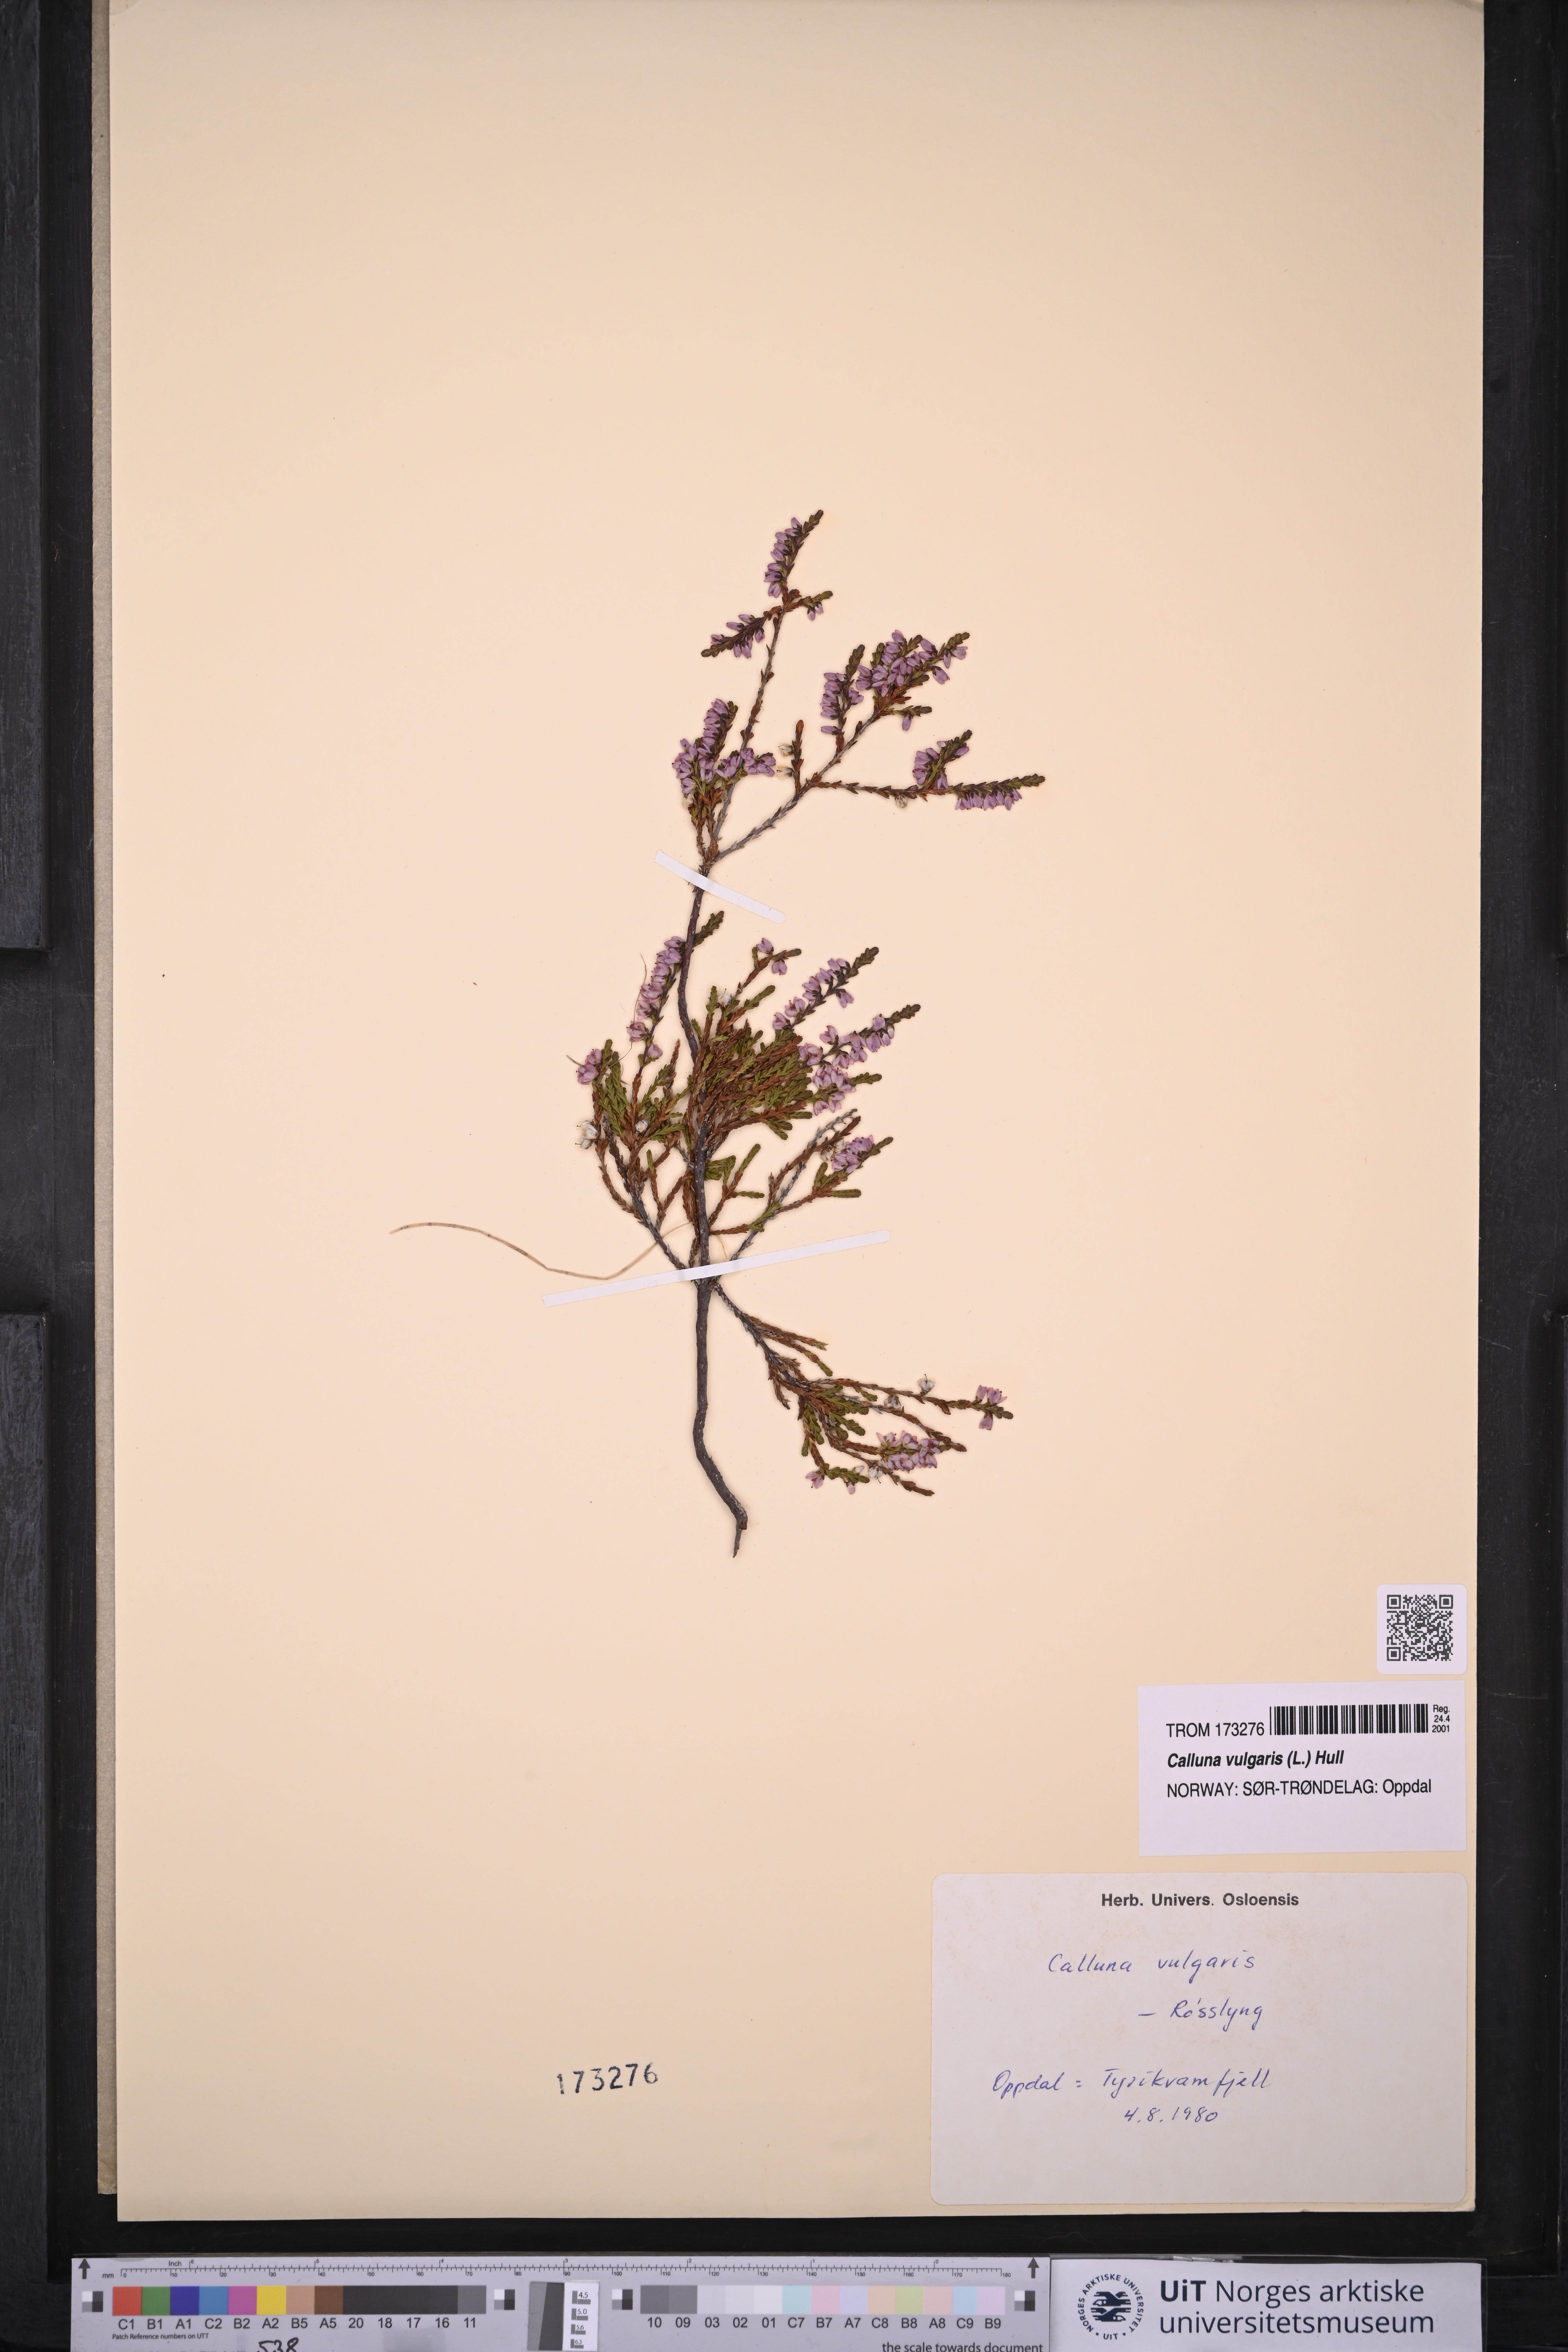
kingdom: Plantae
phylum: Tracheophyta
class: Magnoliopsida
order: Ericales
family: Ericaceae
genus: Calluna
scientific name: Calluna vulgaris
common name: Heather
